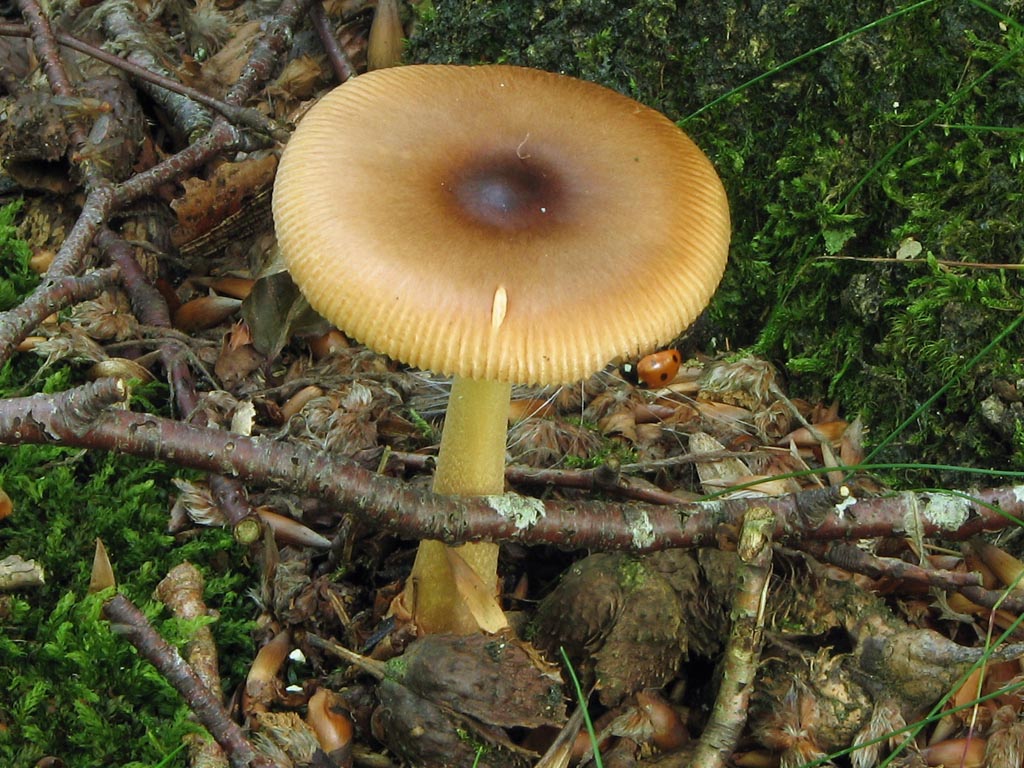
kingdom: Fungi
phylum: Basidiomycota
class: Agaricomycetes
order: Agaricales
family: Amanitaceae
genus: Amanita
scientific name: Amanita fulva
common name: brun kam-fluesvamp
